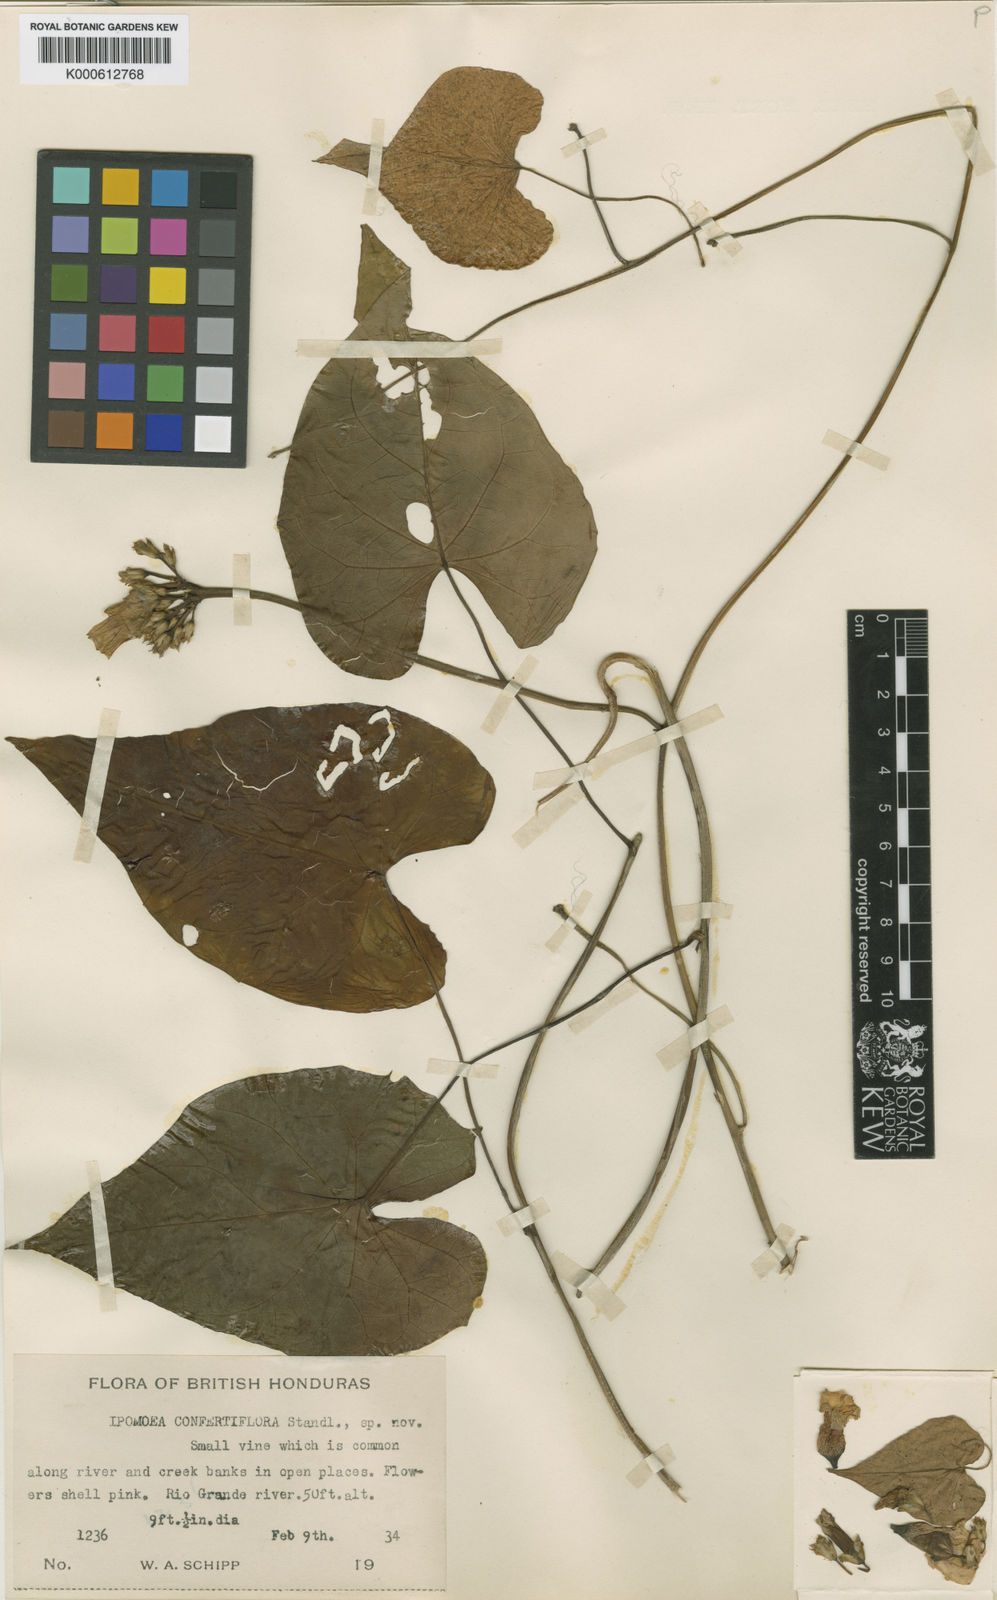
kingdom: Plantae
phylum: Tracheophyta
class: Magnoliopsida
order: Solanales
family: Convolvulaceae
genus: Ipomoea
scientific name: Ipomoea batatas
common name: Sweet-potato
